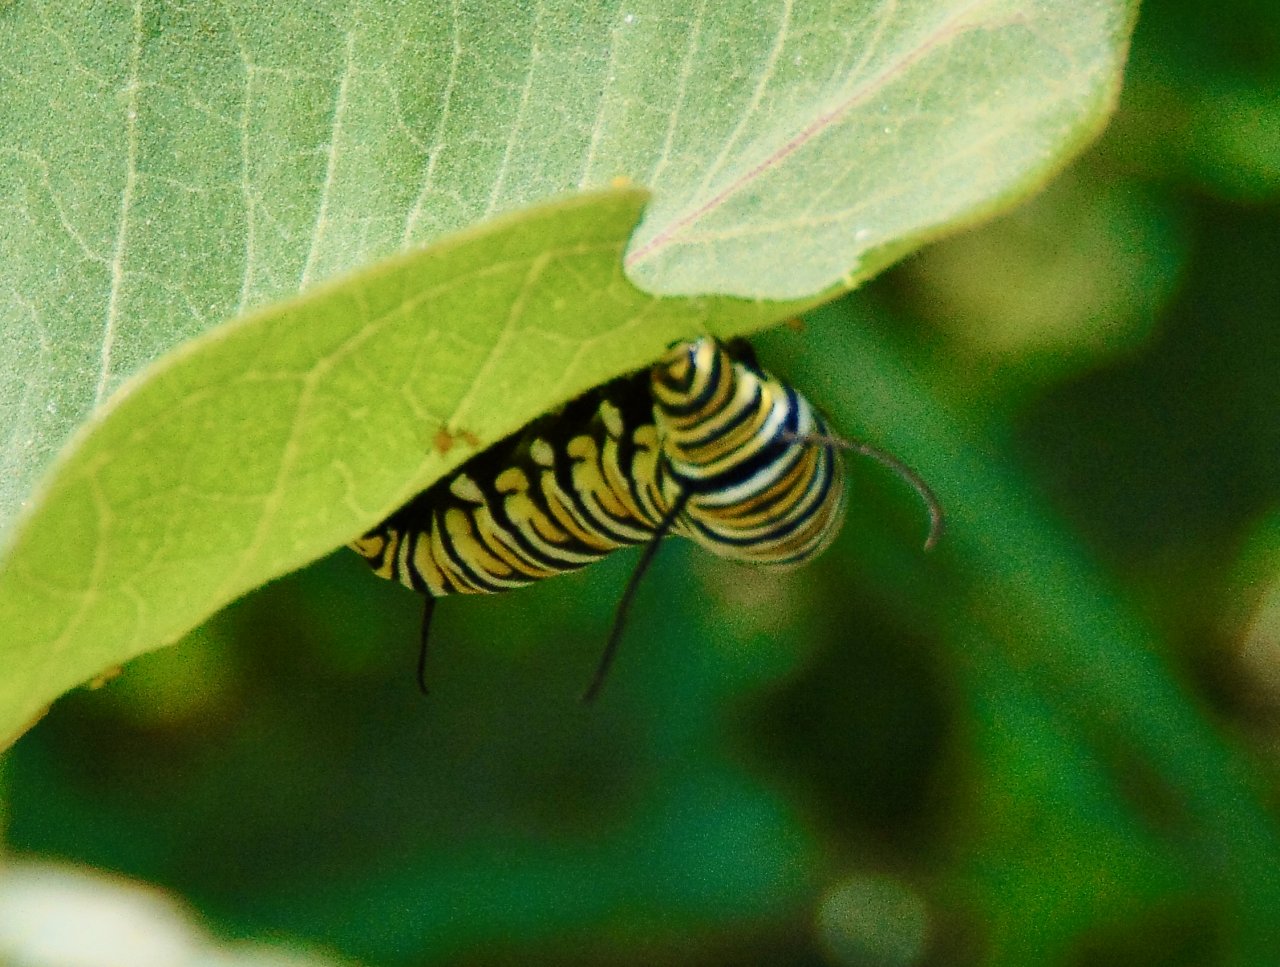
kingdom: Animalia
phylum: Arthropoda
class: Insecta
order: Lepidoptera
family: Nymphalidae
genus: Danaus
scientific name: Danaus plexippus
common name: Monarch
